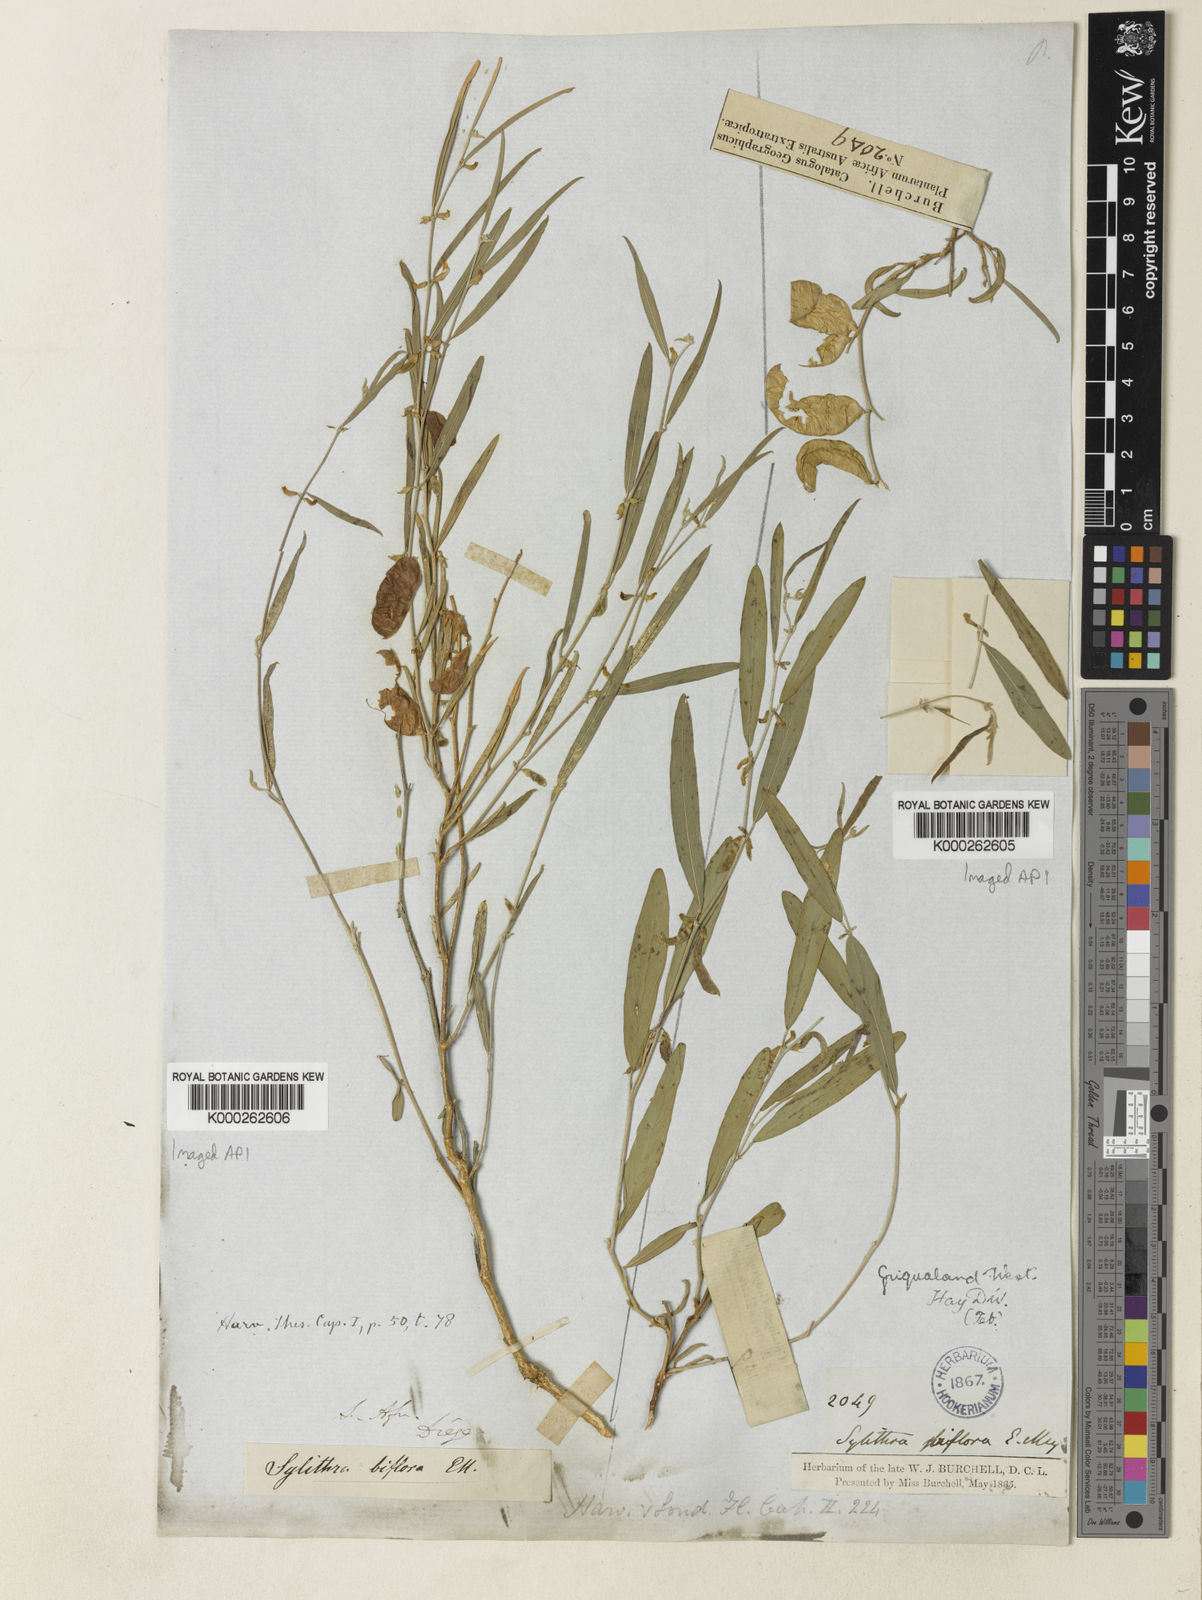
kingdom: Plantae
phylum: Tracheophyta
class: Magnoliopsida
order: Fabales
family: Fabaceae
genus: Ptycholobium
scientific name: Ptycholobium biflorum
